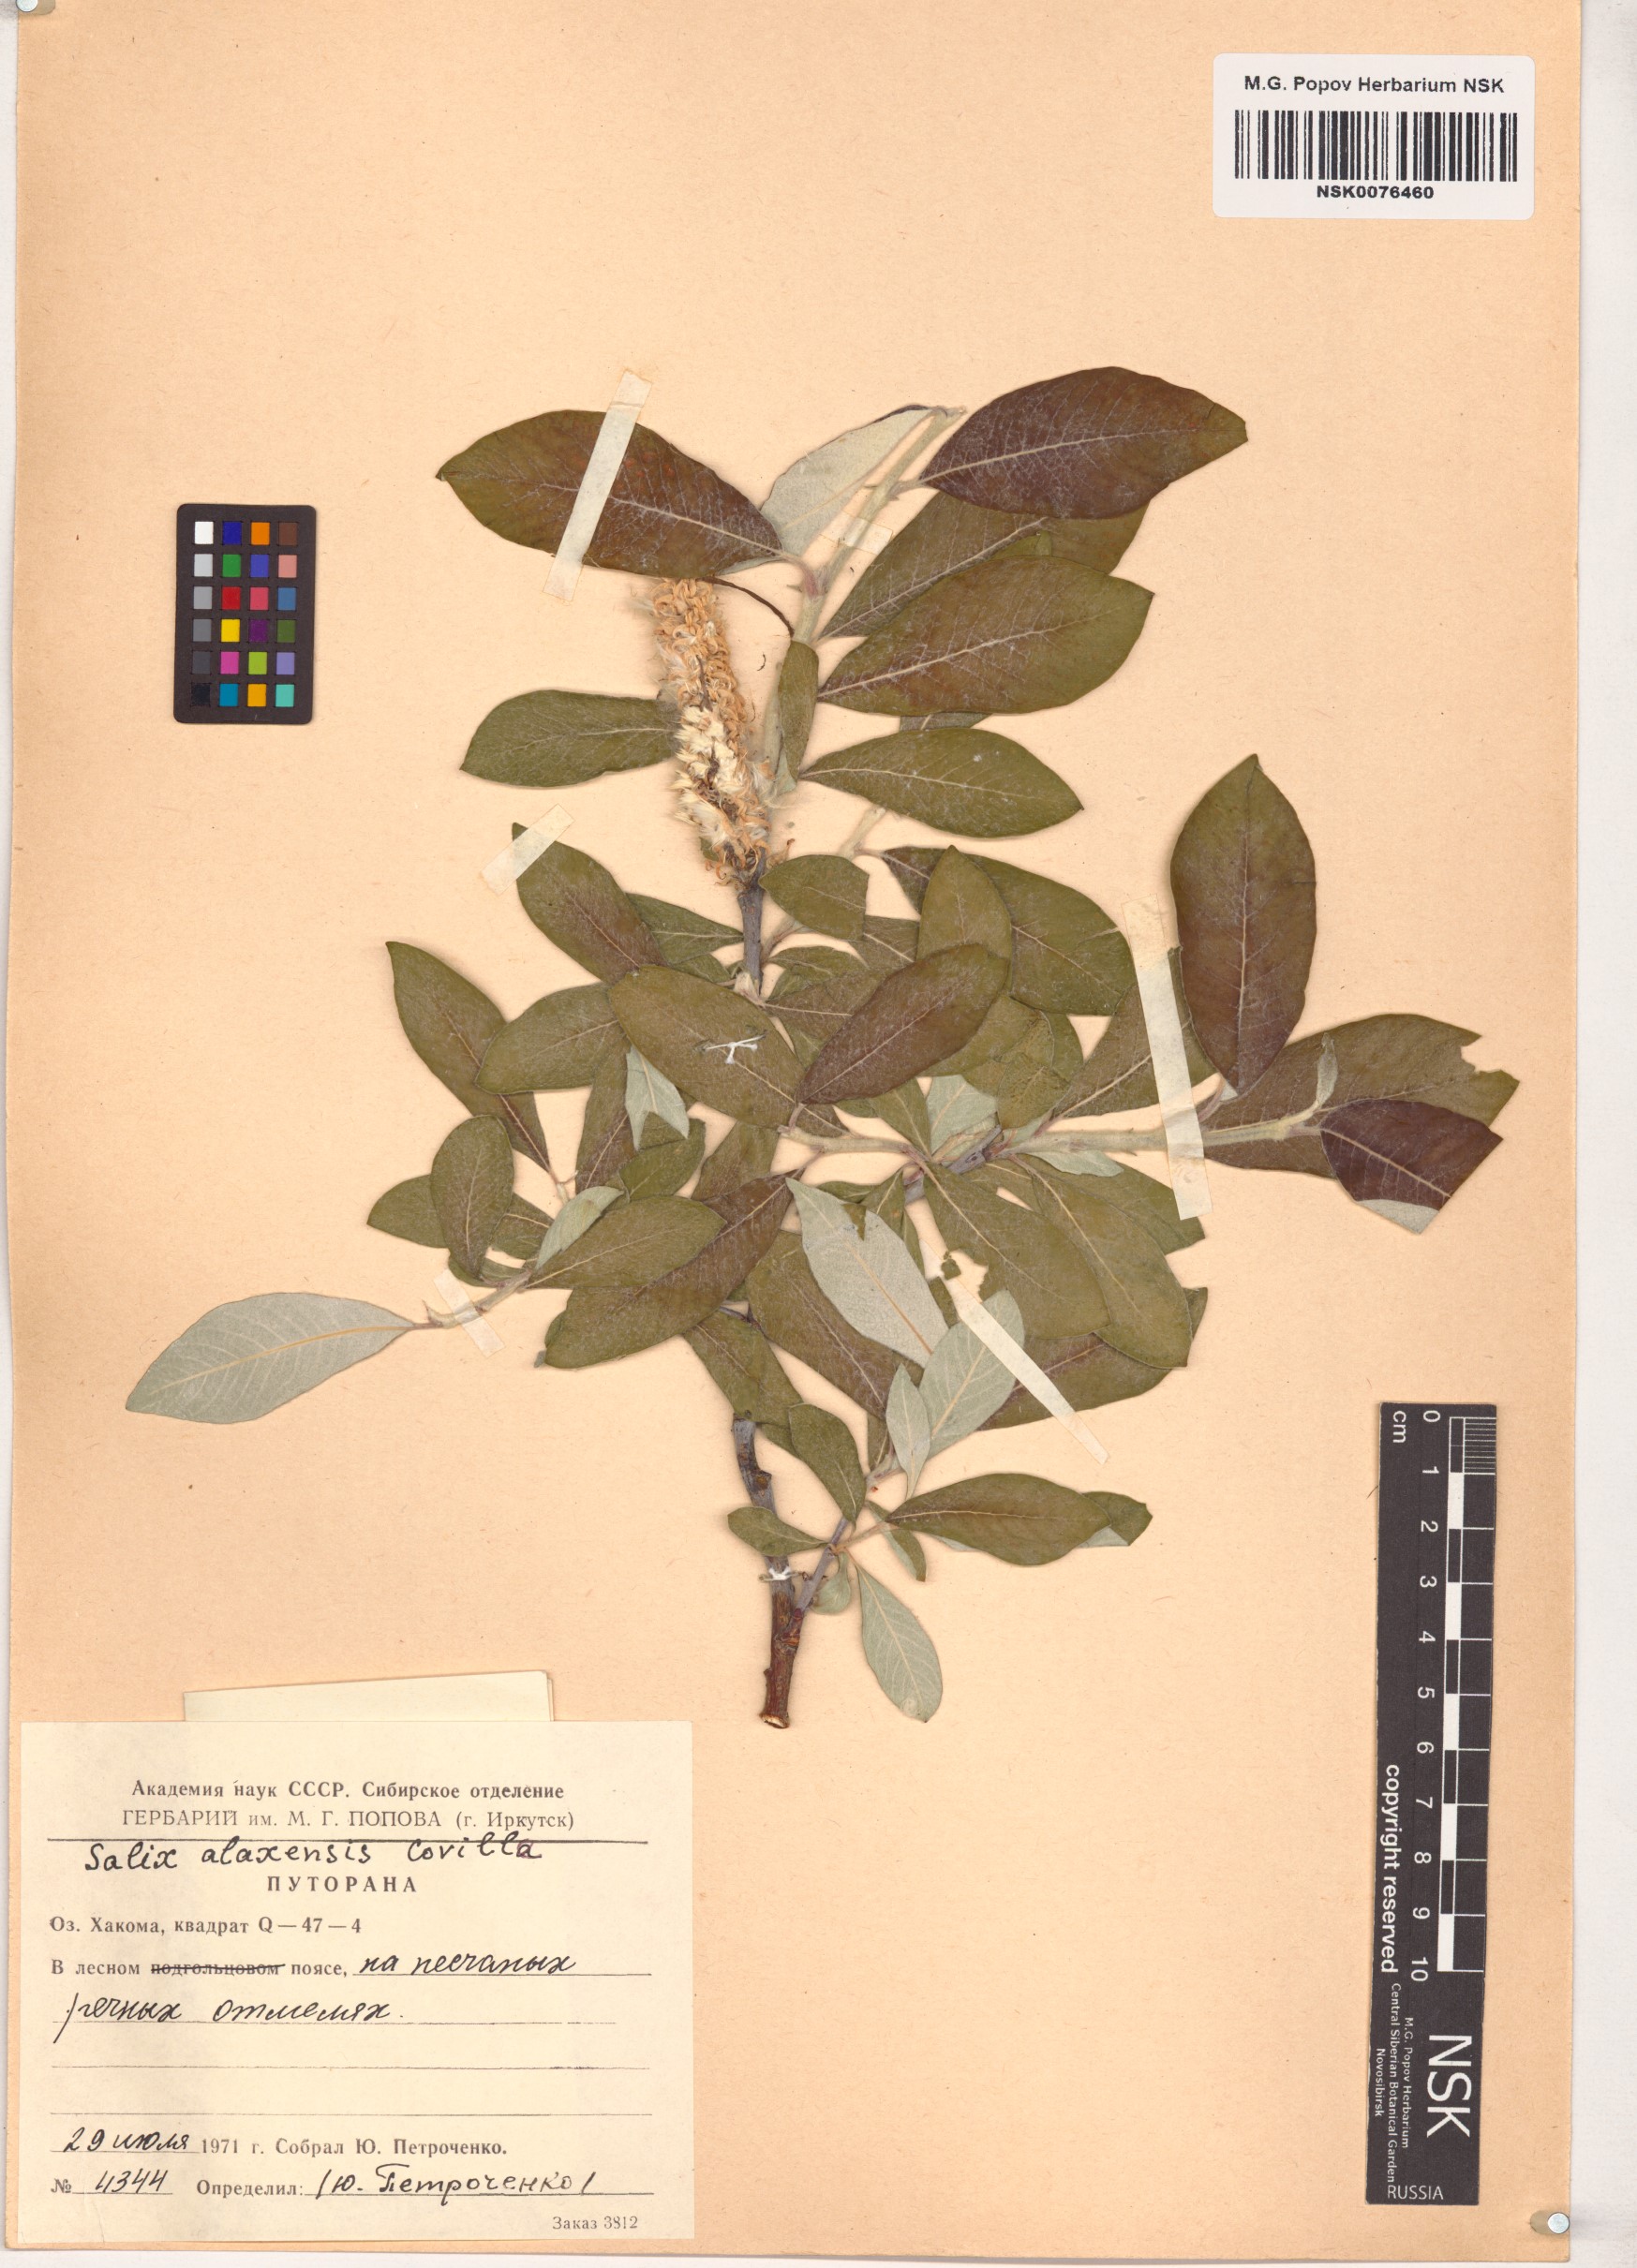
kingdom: Plantae
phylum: Tracheophyta
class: Magnoliopsida
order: Malpighiales
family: Salicaceae
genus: Salix
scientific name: Salix alaxensis
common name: Feltleaf willow
